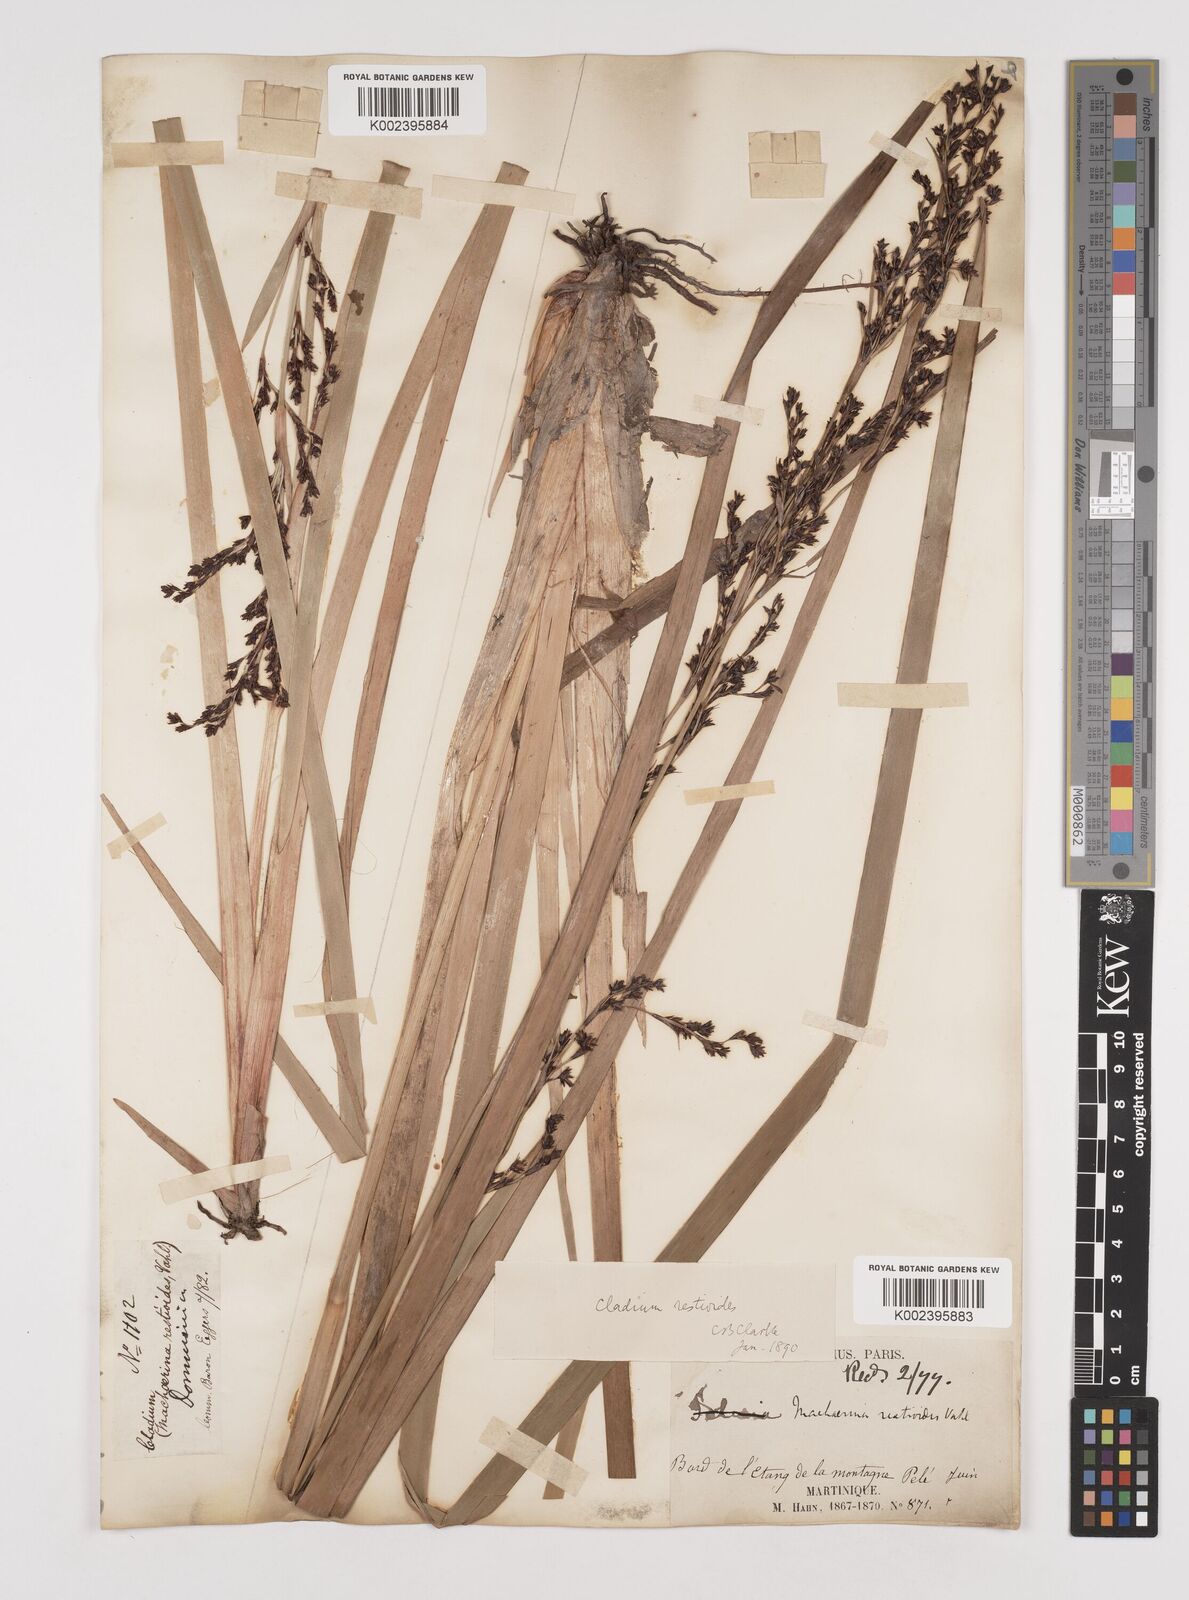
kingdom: Plantae
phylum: Tracheophyta
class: Liliopsida
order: Poales
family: Cyperaceae
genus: Machaerina
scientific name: Machaerina restioides
